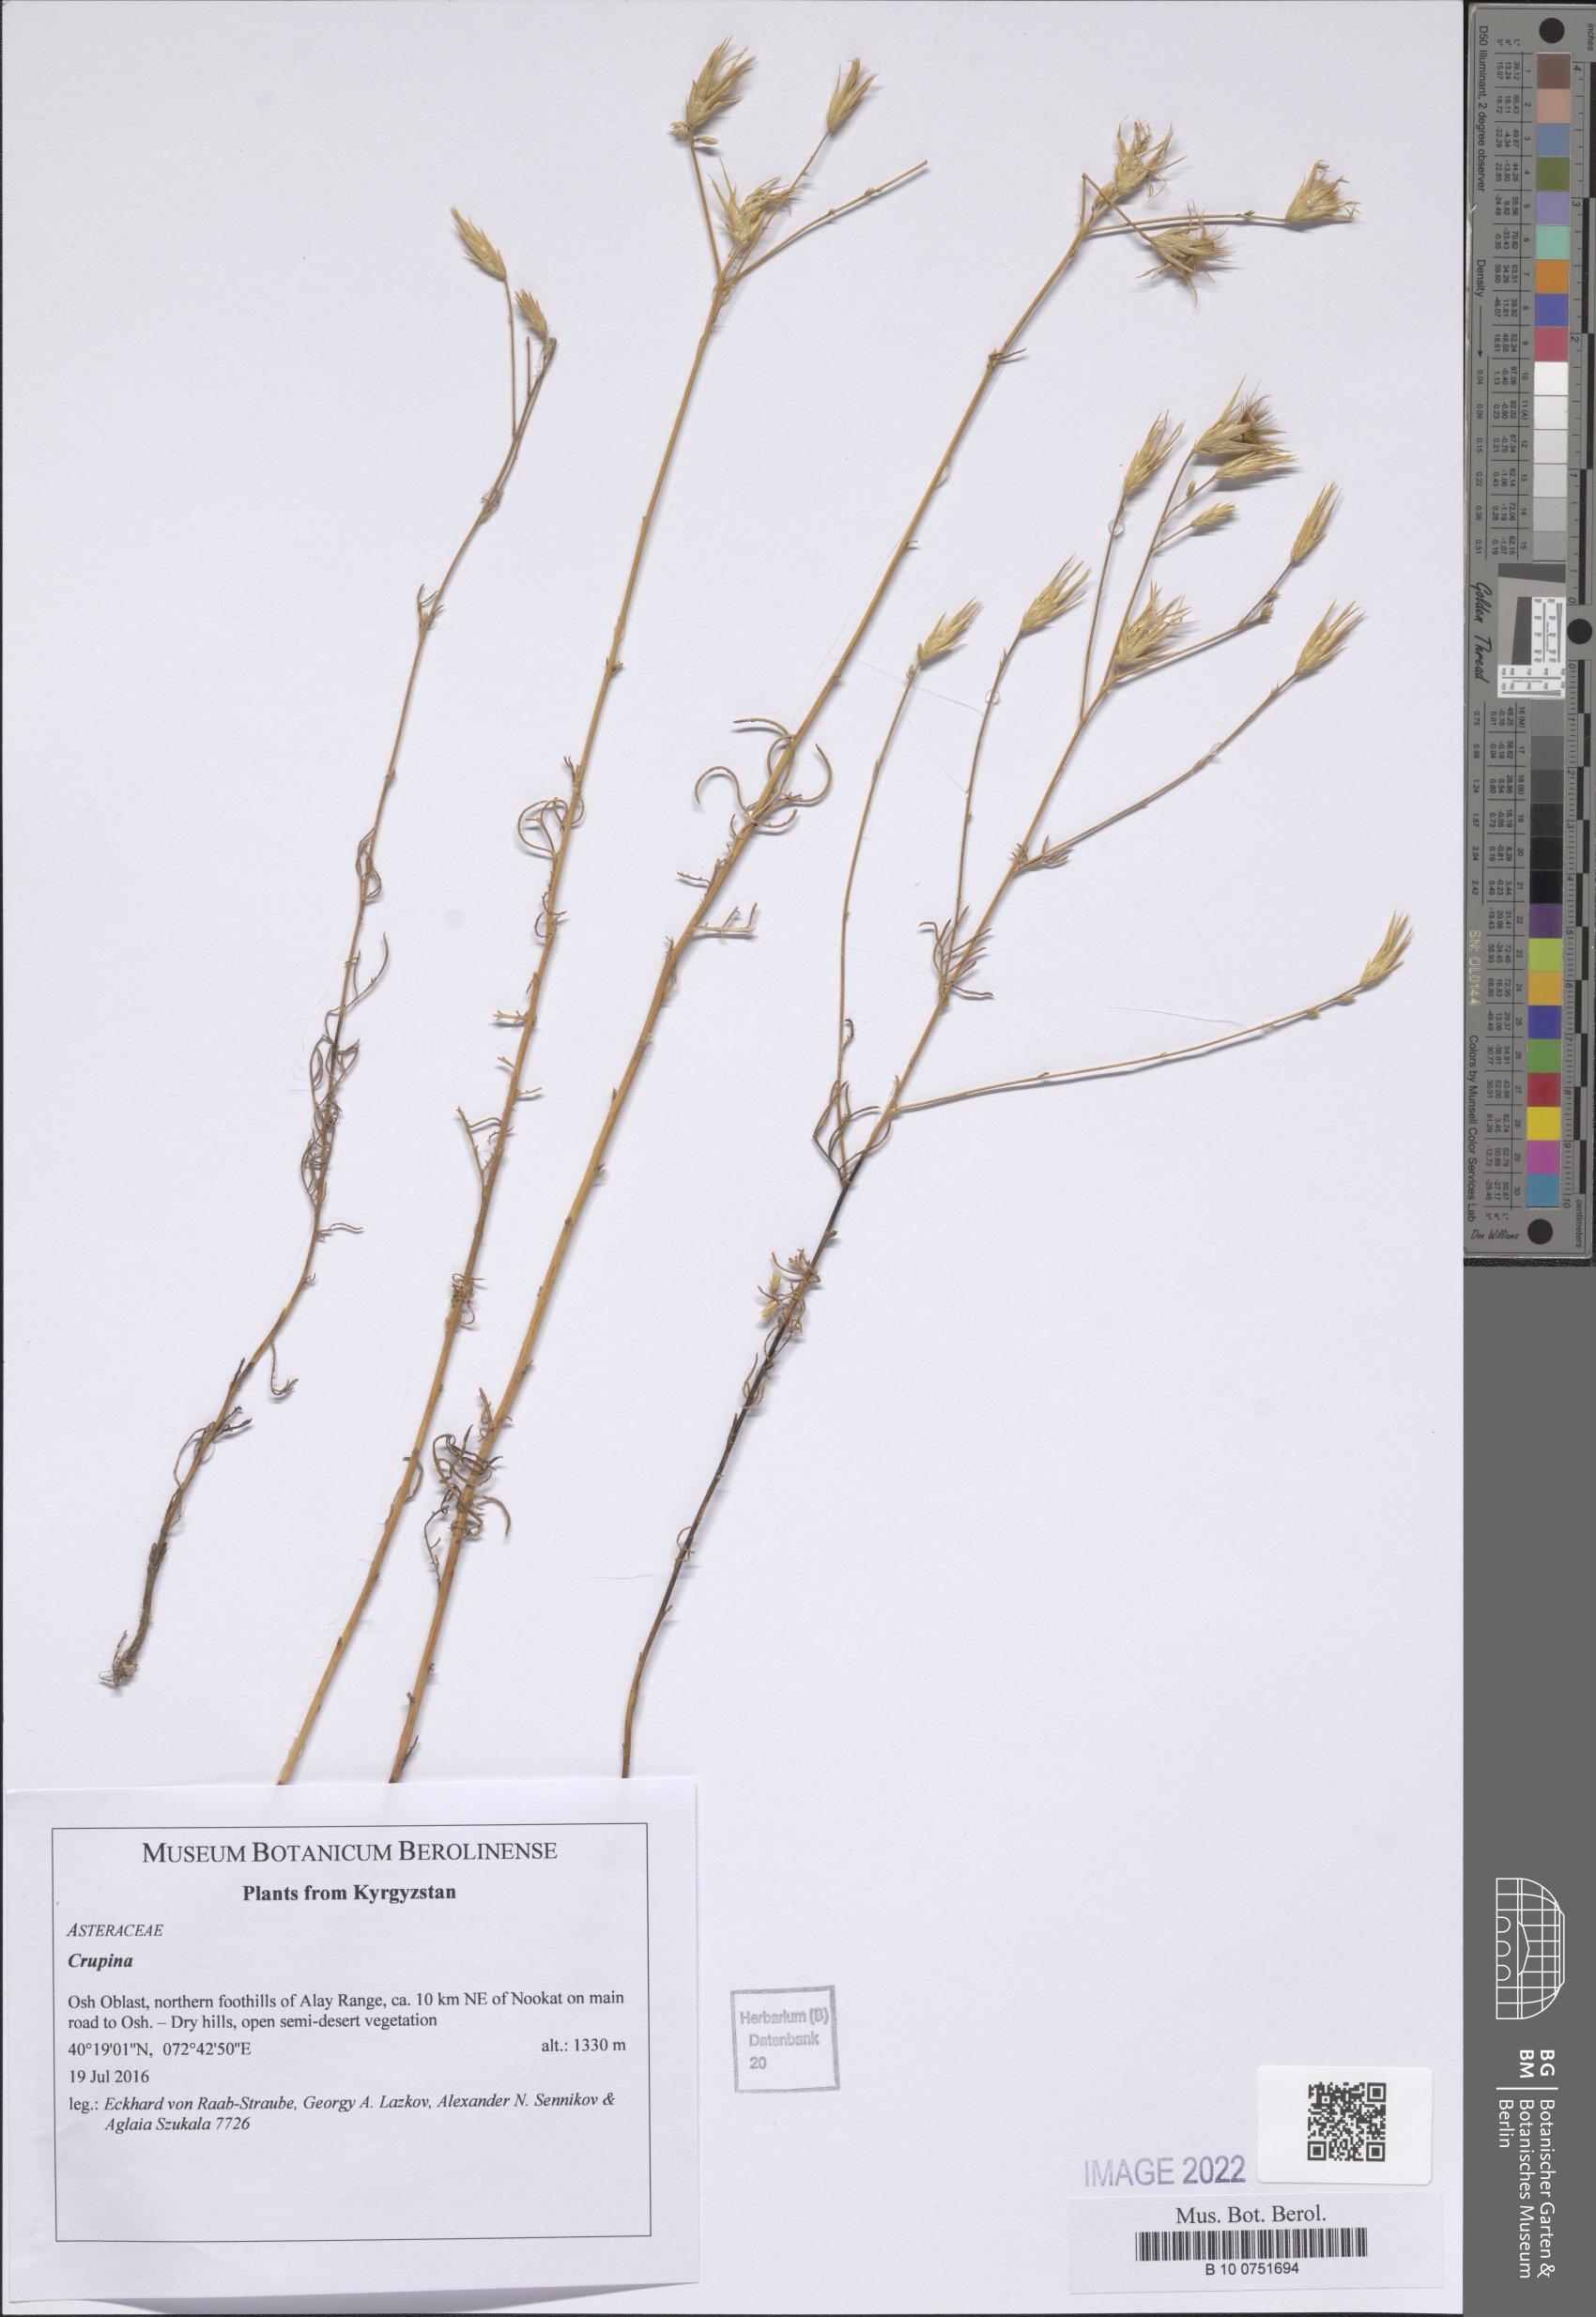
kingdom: Plantae
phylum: Tracheophyta
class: Magnoliopsida
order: Asterales
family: Asteraceae
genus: Crupina
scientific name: Crupina
